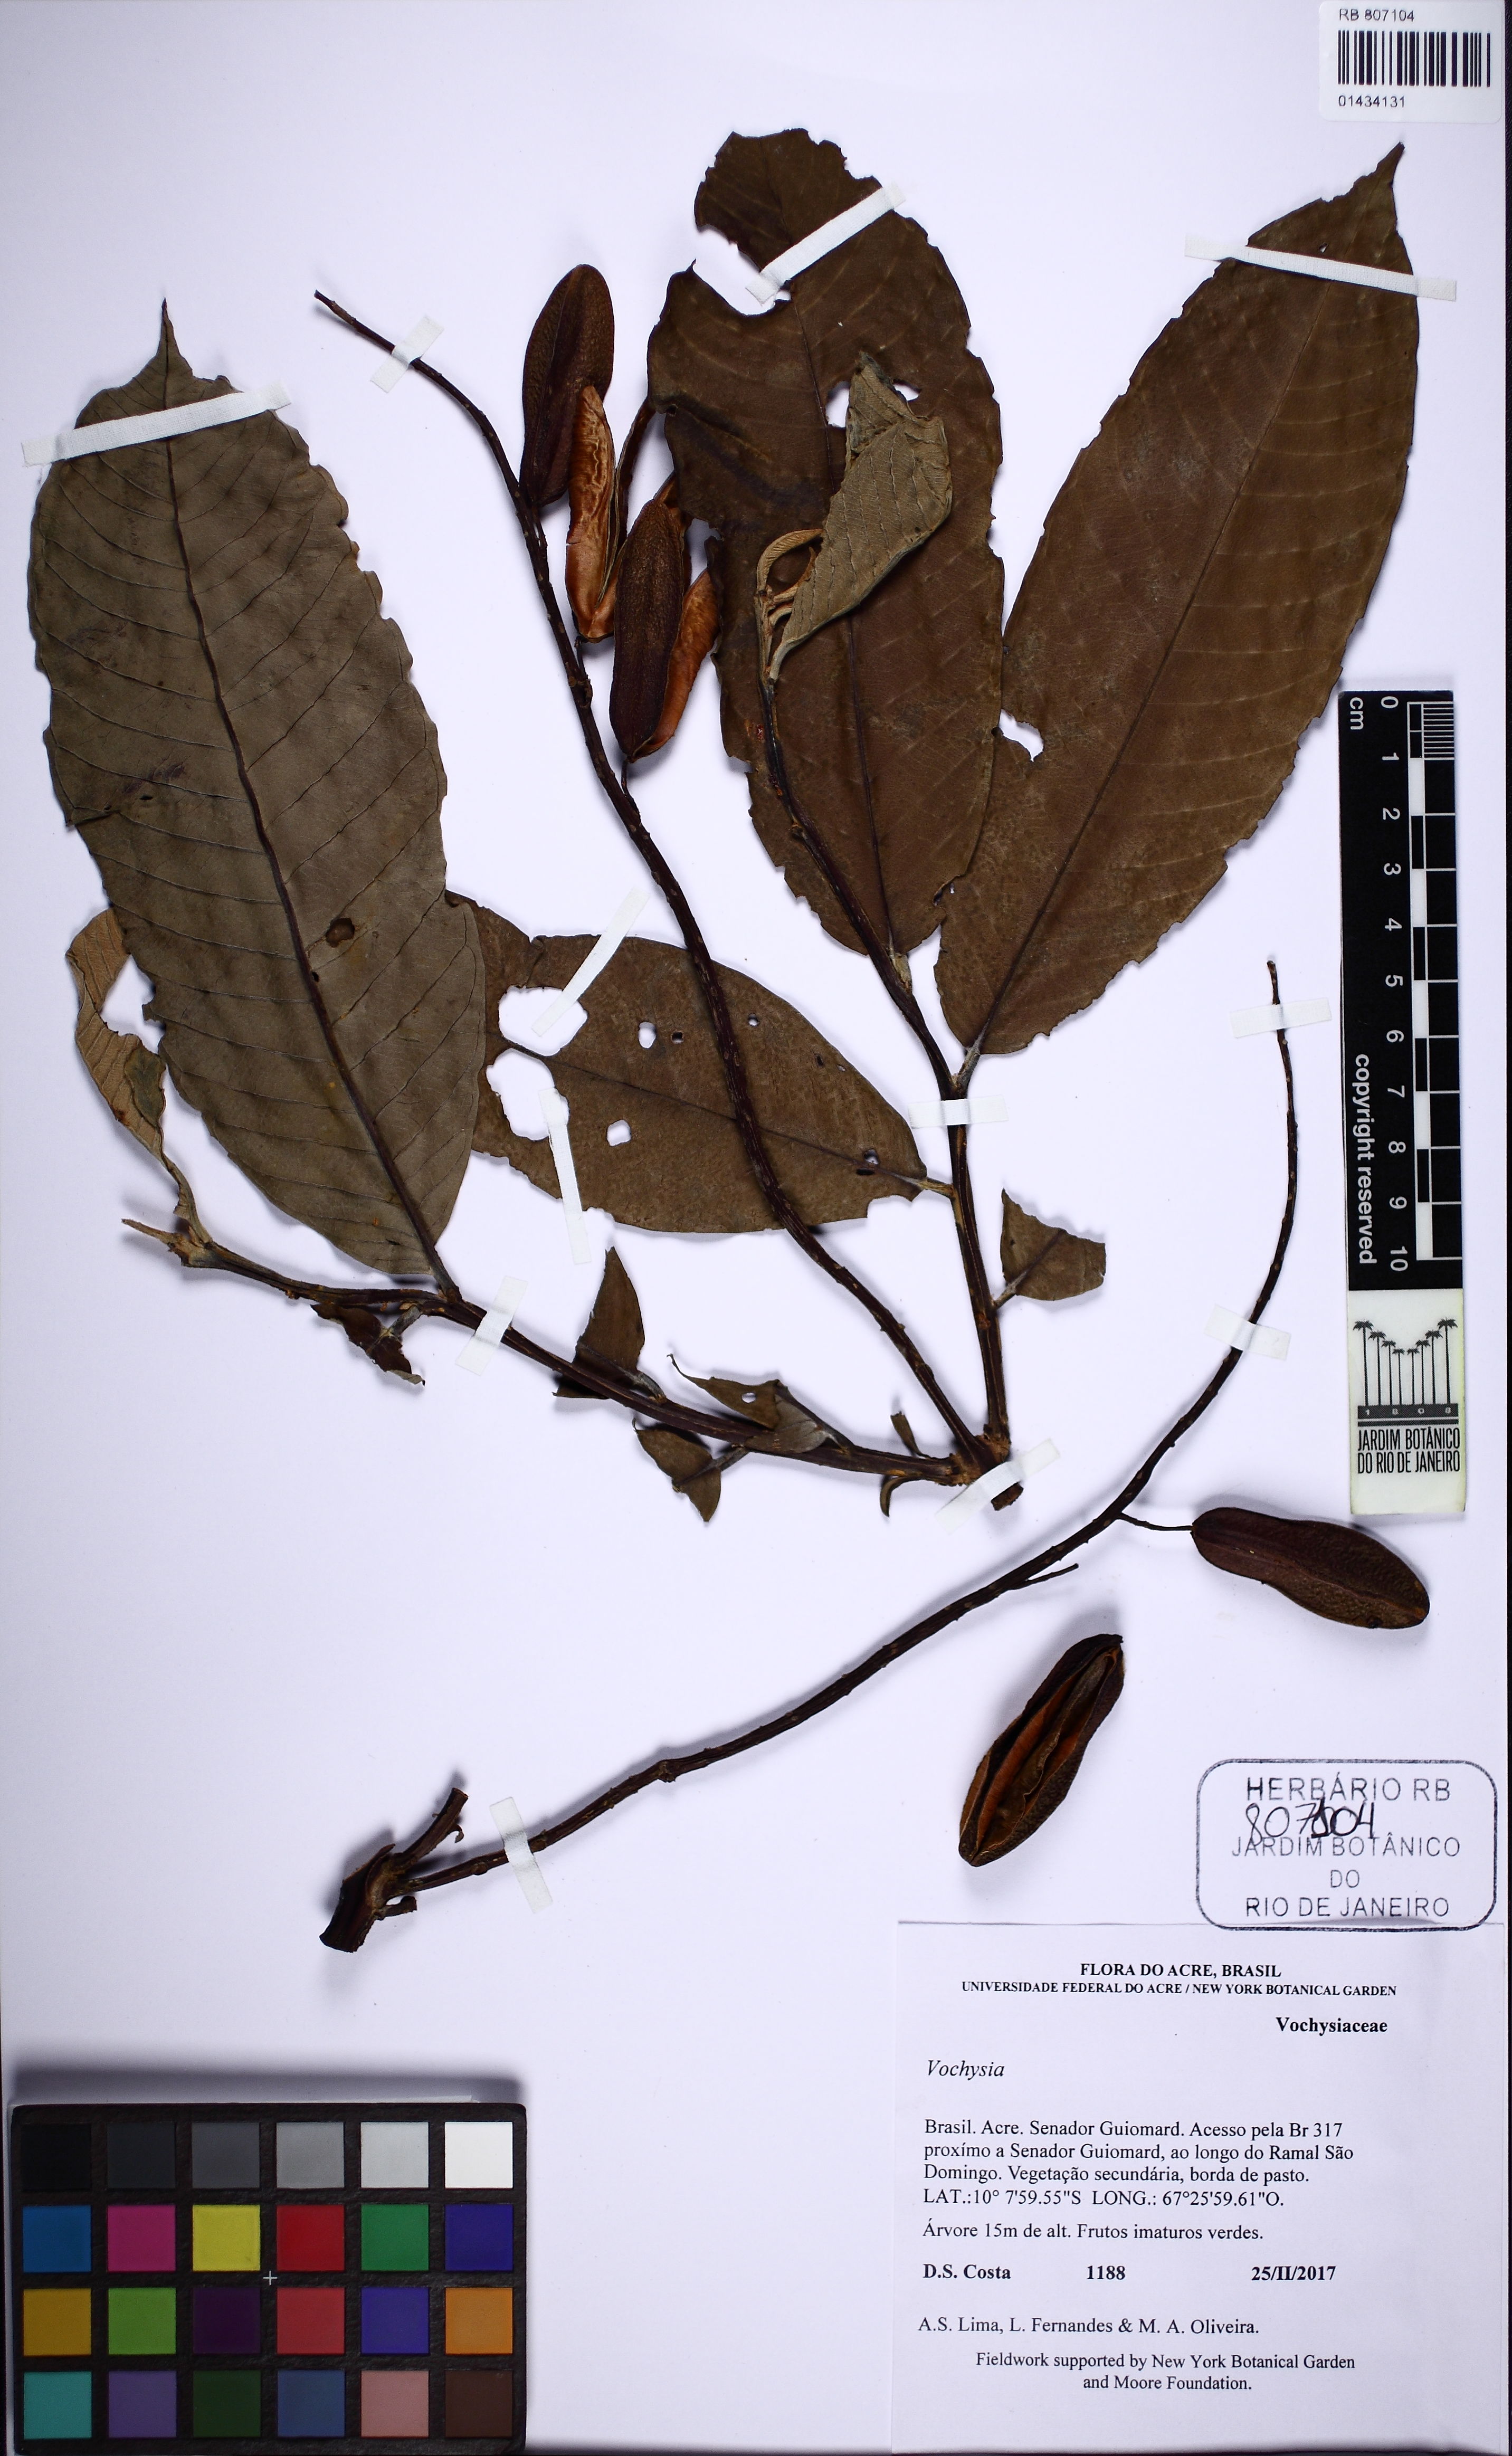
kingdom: Plantae
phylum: Tracheophyta
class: Magnoliopsida
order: Myrtales
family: Vochysiaceae
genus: Vochysia
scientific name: Vochysia
